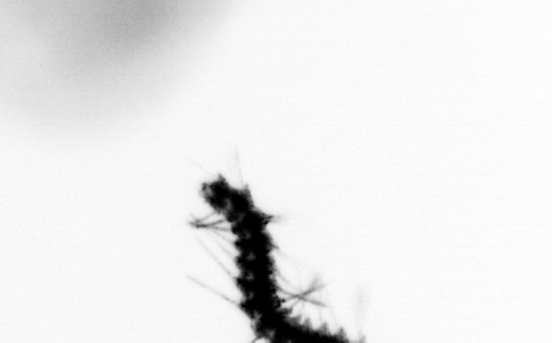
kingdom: Animalia
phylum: Annelida
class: Polychaeta
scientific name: Polychaeta
